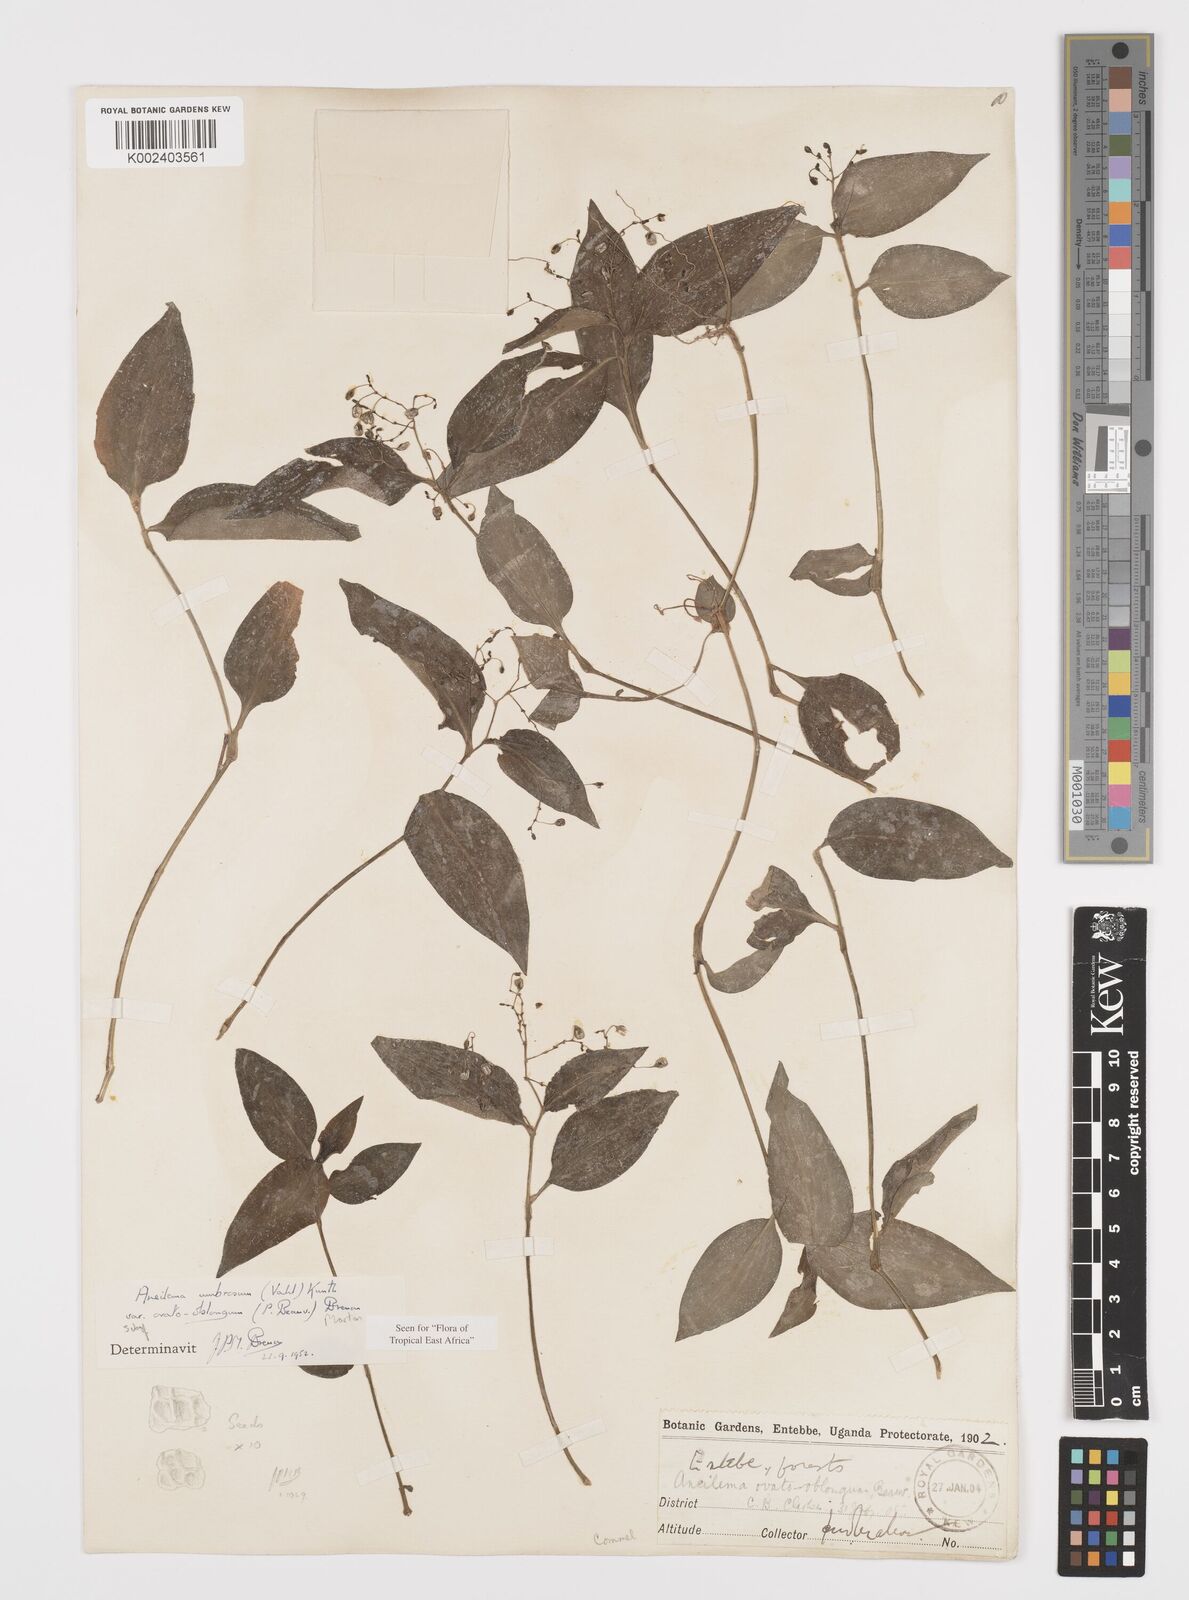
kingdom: Plantae
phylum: Tracheophyta
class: Liliopsida
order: Commelinales
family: Commelinaceae
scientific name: Commelinaceae
